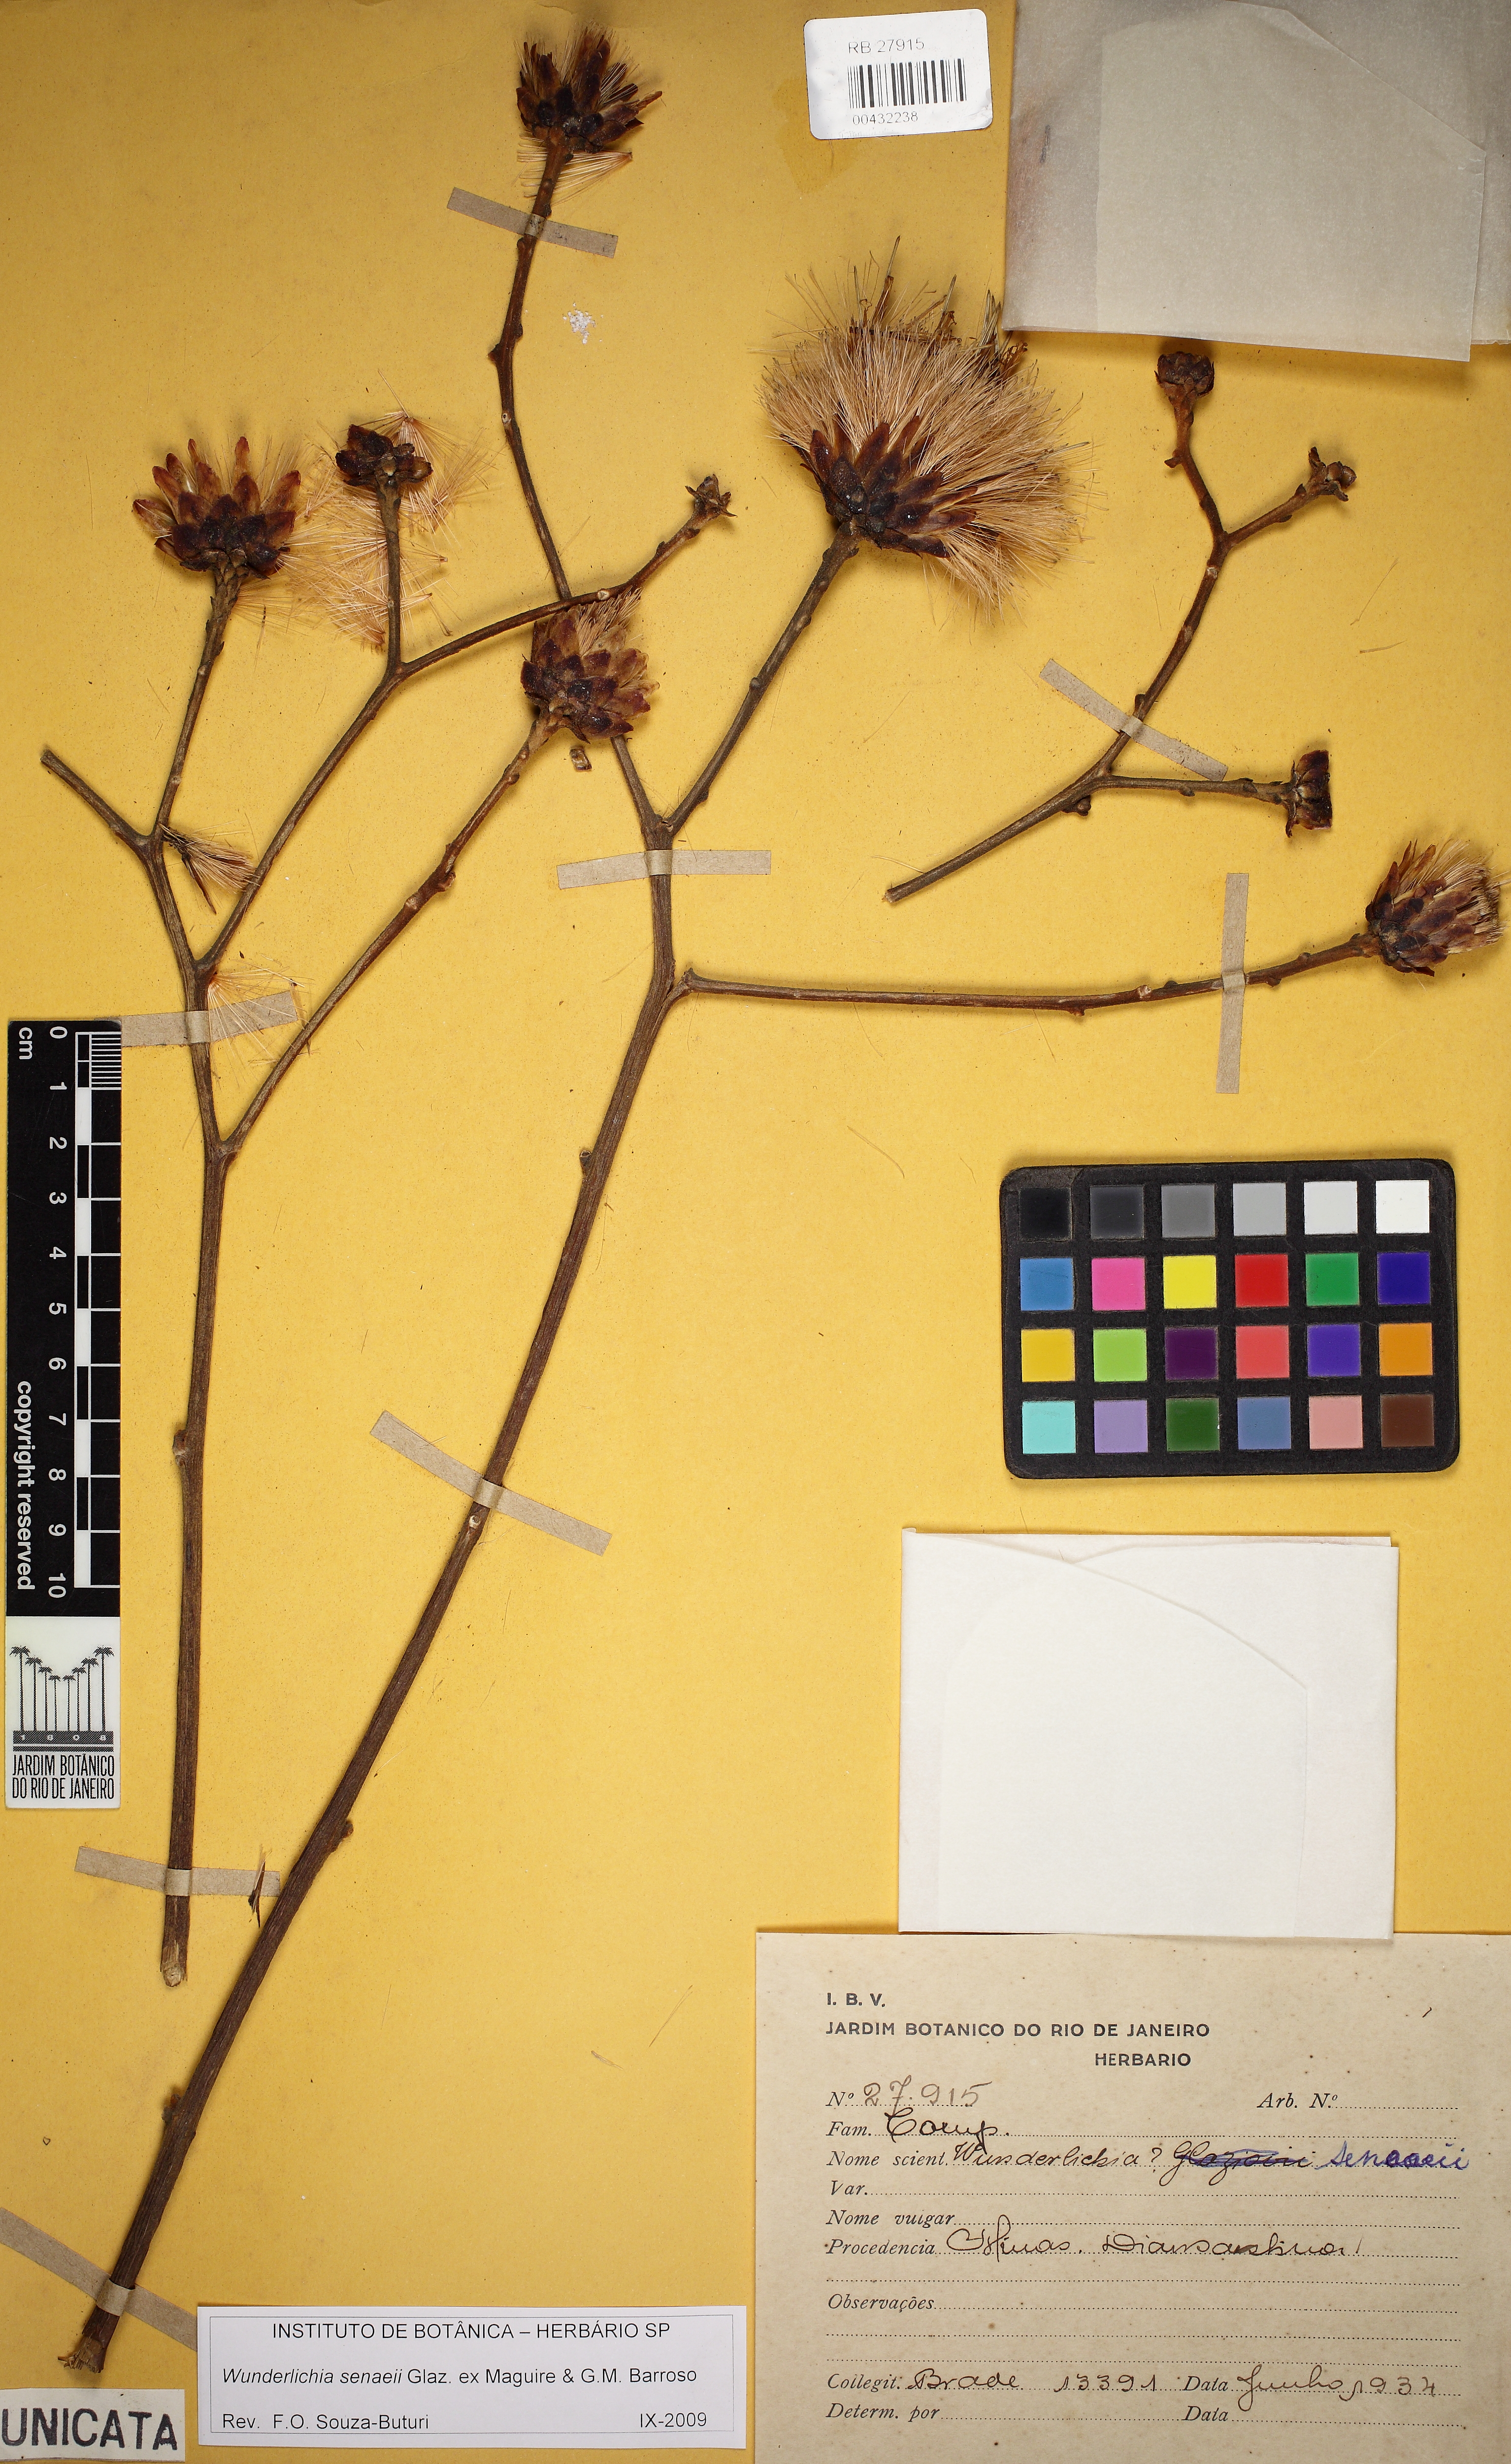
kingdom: Plantae
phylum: Tracheophyta
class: Magnoliopsida
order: Asterales
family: Asteraceae
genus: Wunderlichia
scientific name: Wunderlichia senaeii
